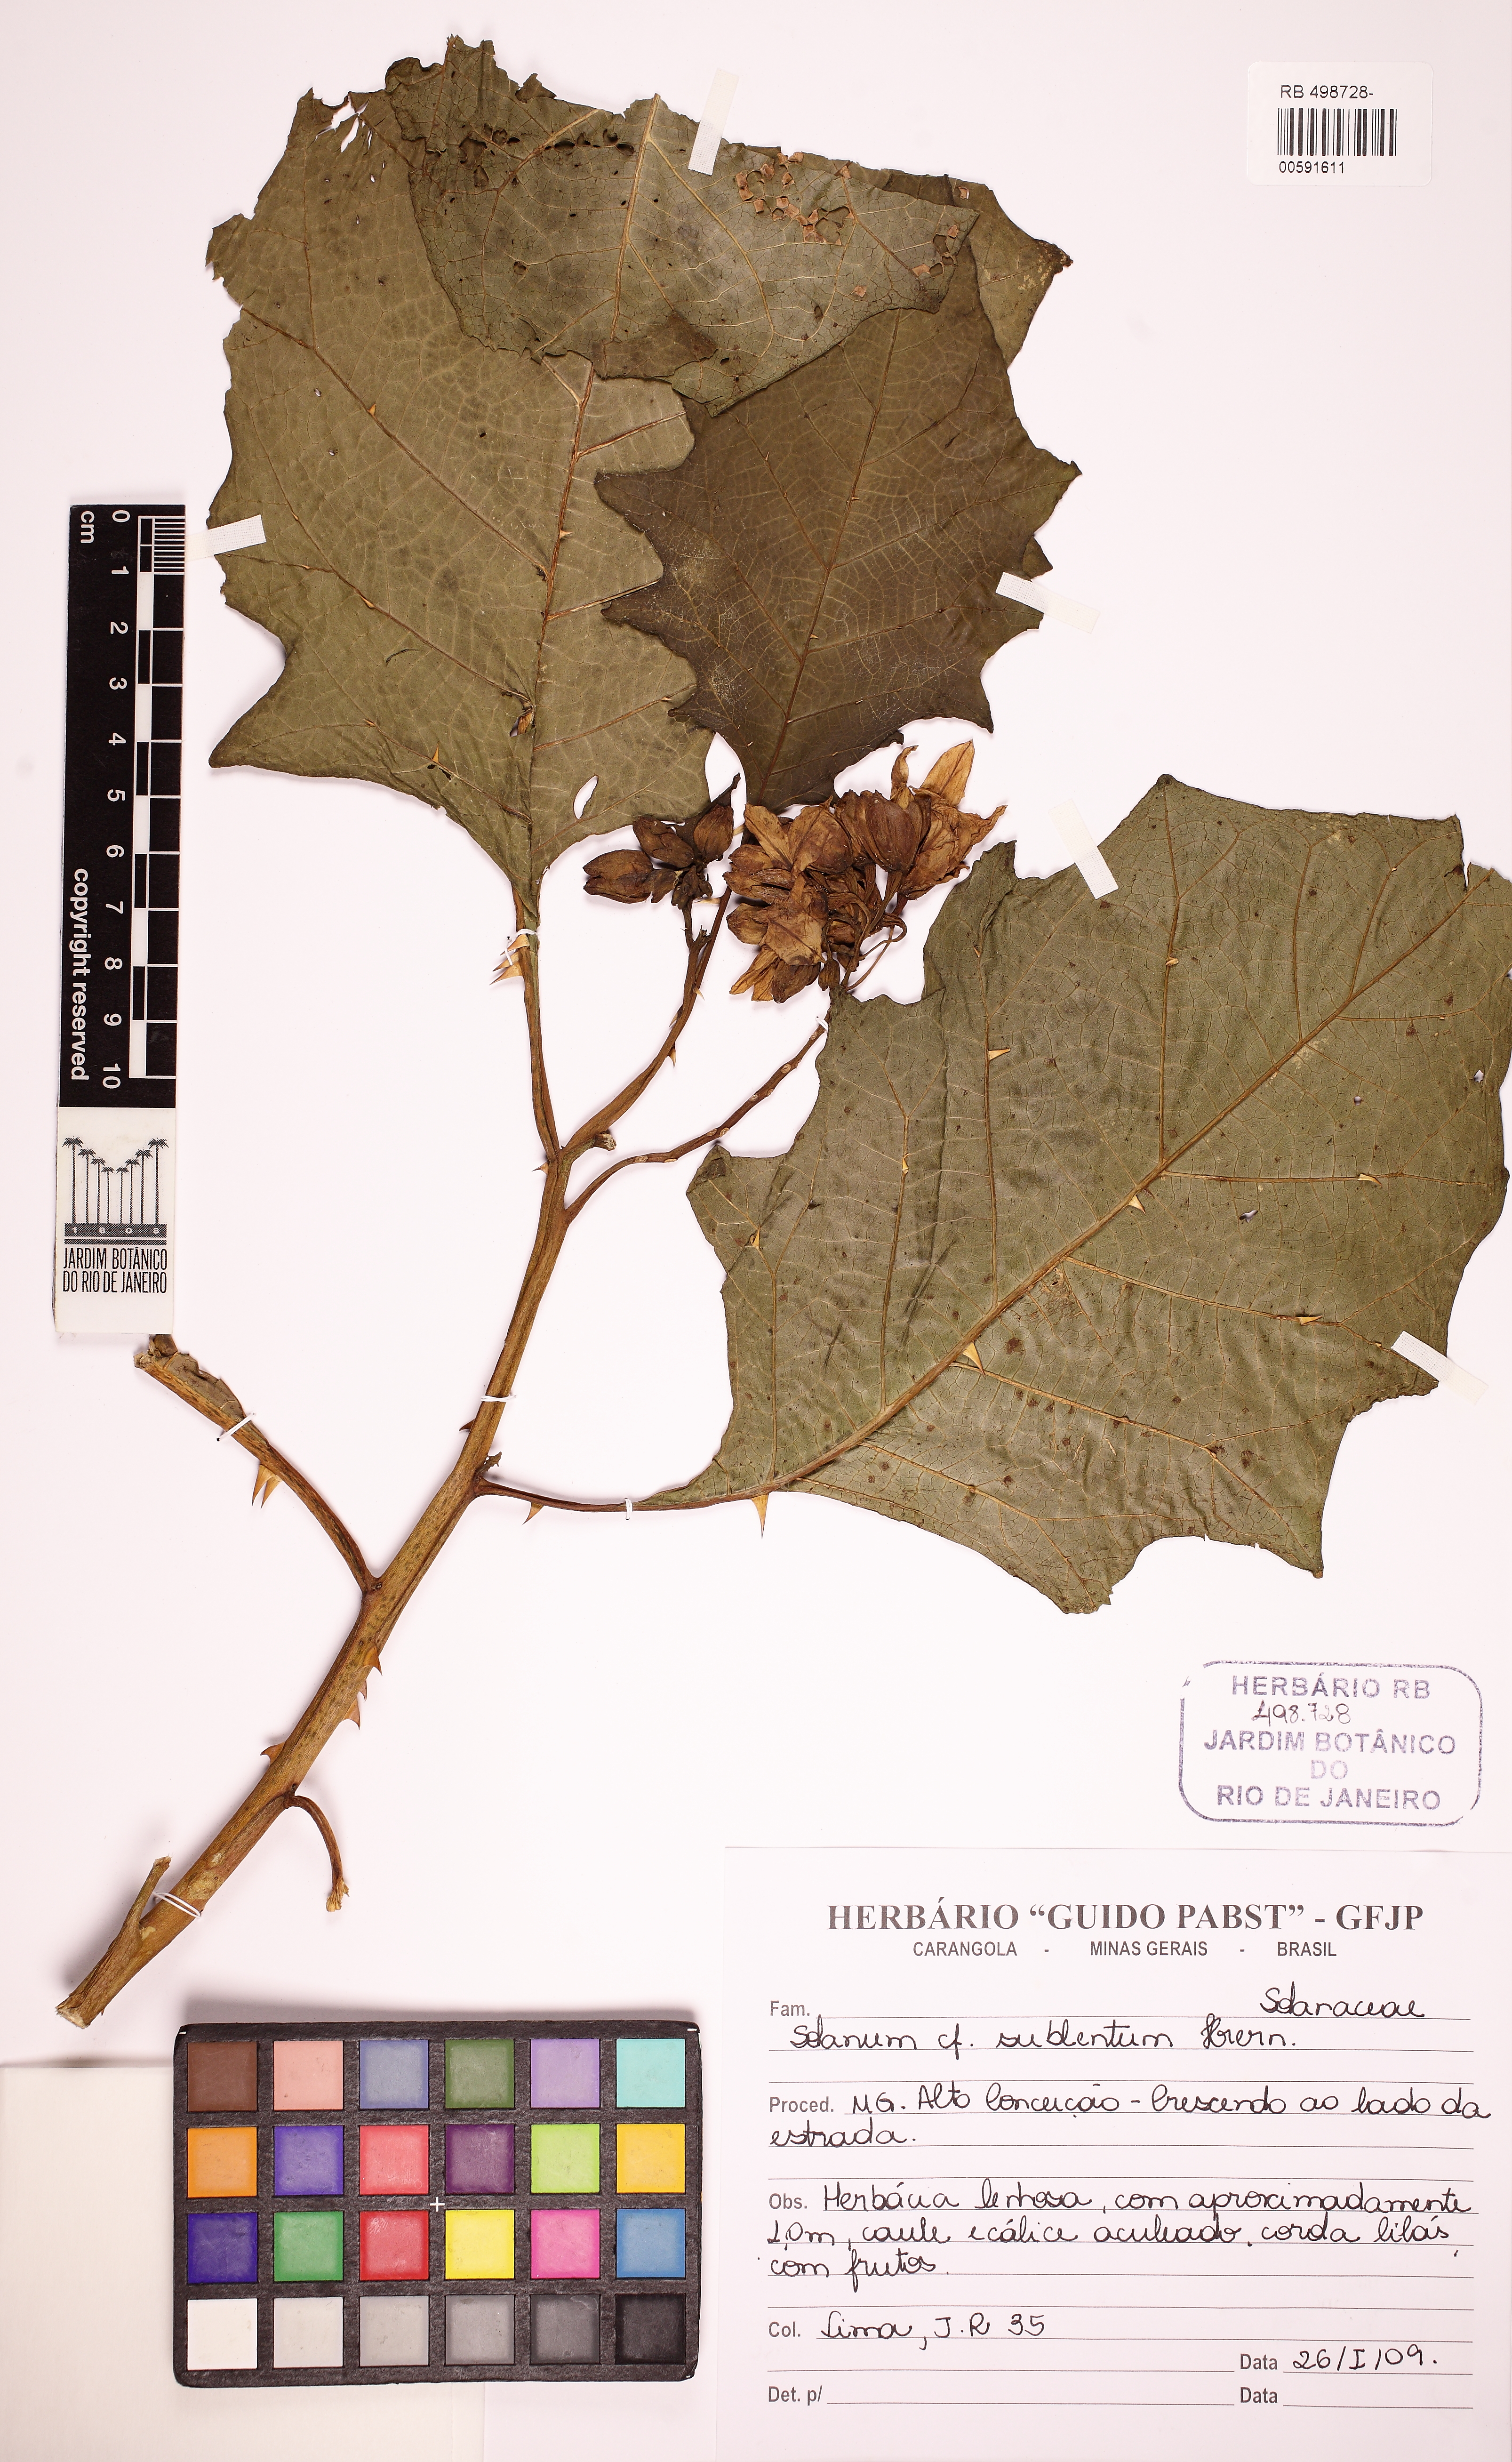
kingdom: Plantae
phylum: Tracheophyta
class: Magnoliopsida
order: Solanales
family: Solanaceae
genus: Solanum
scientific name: Solanum hexandrum
